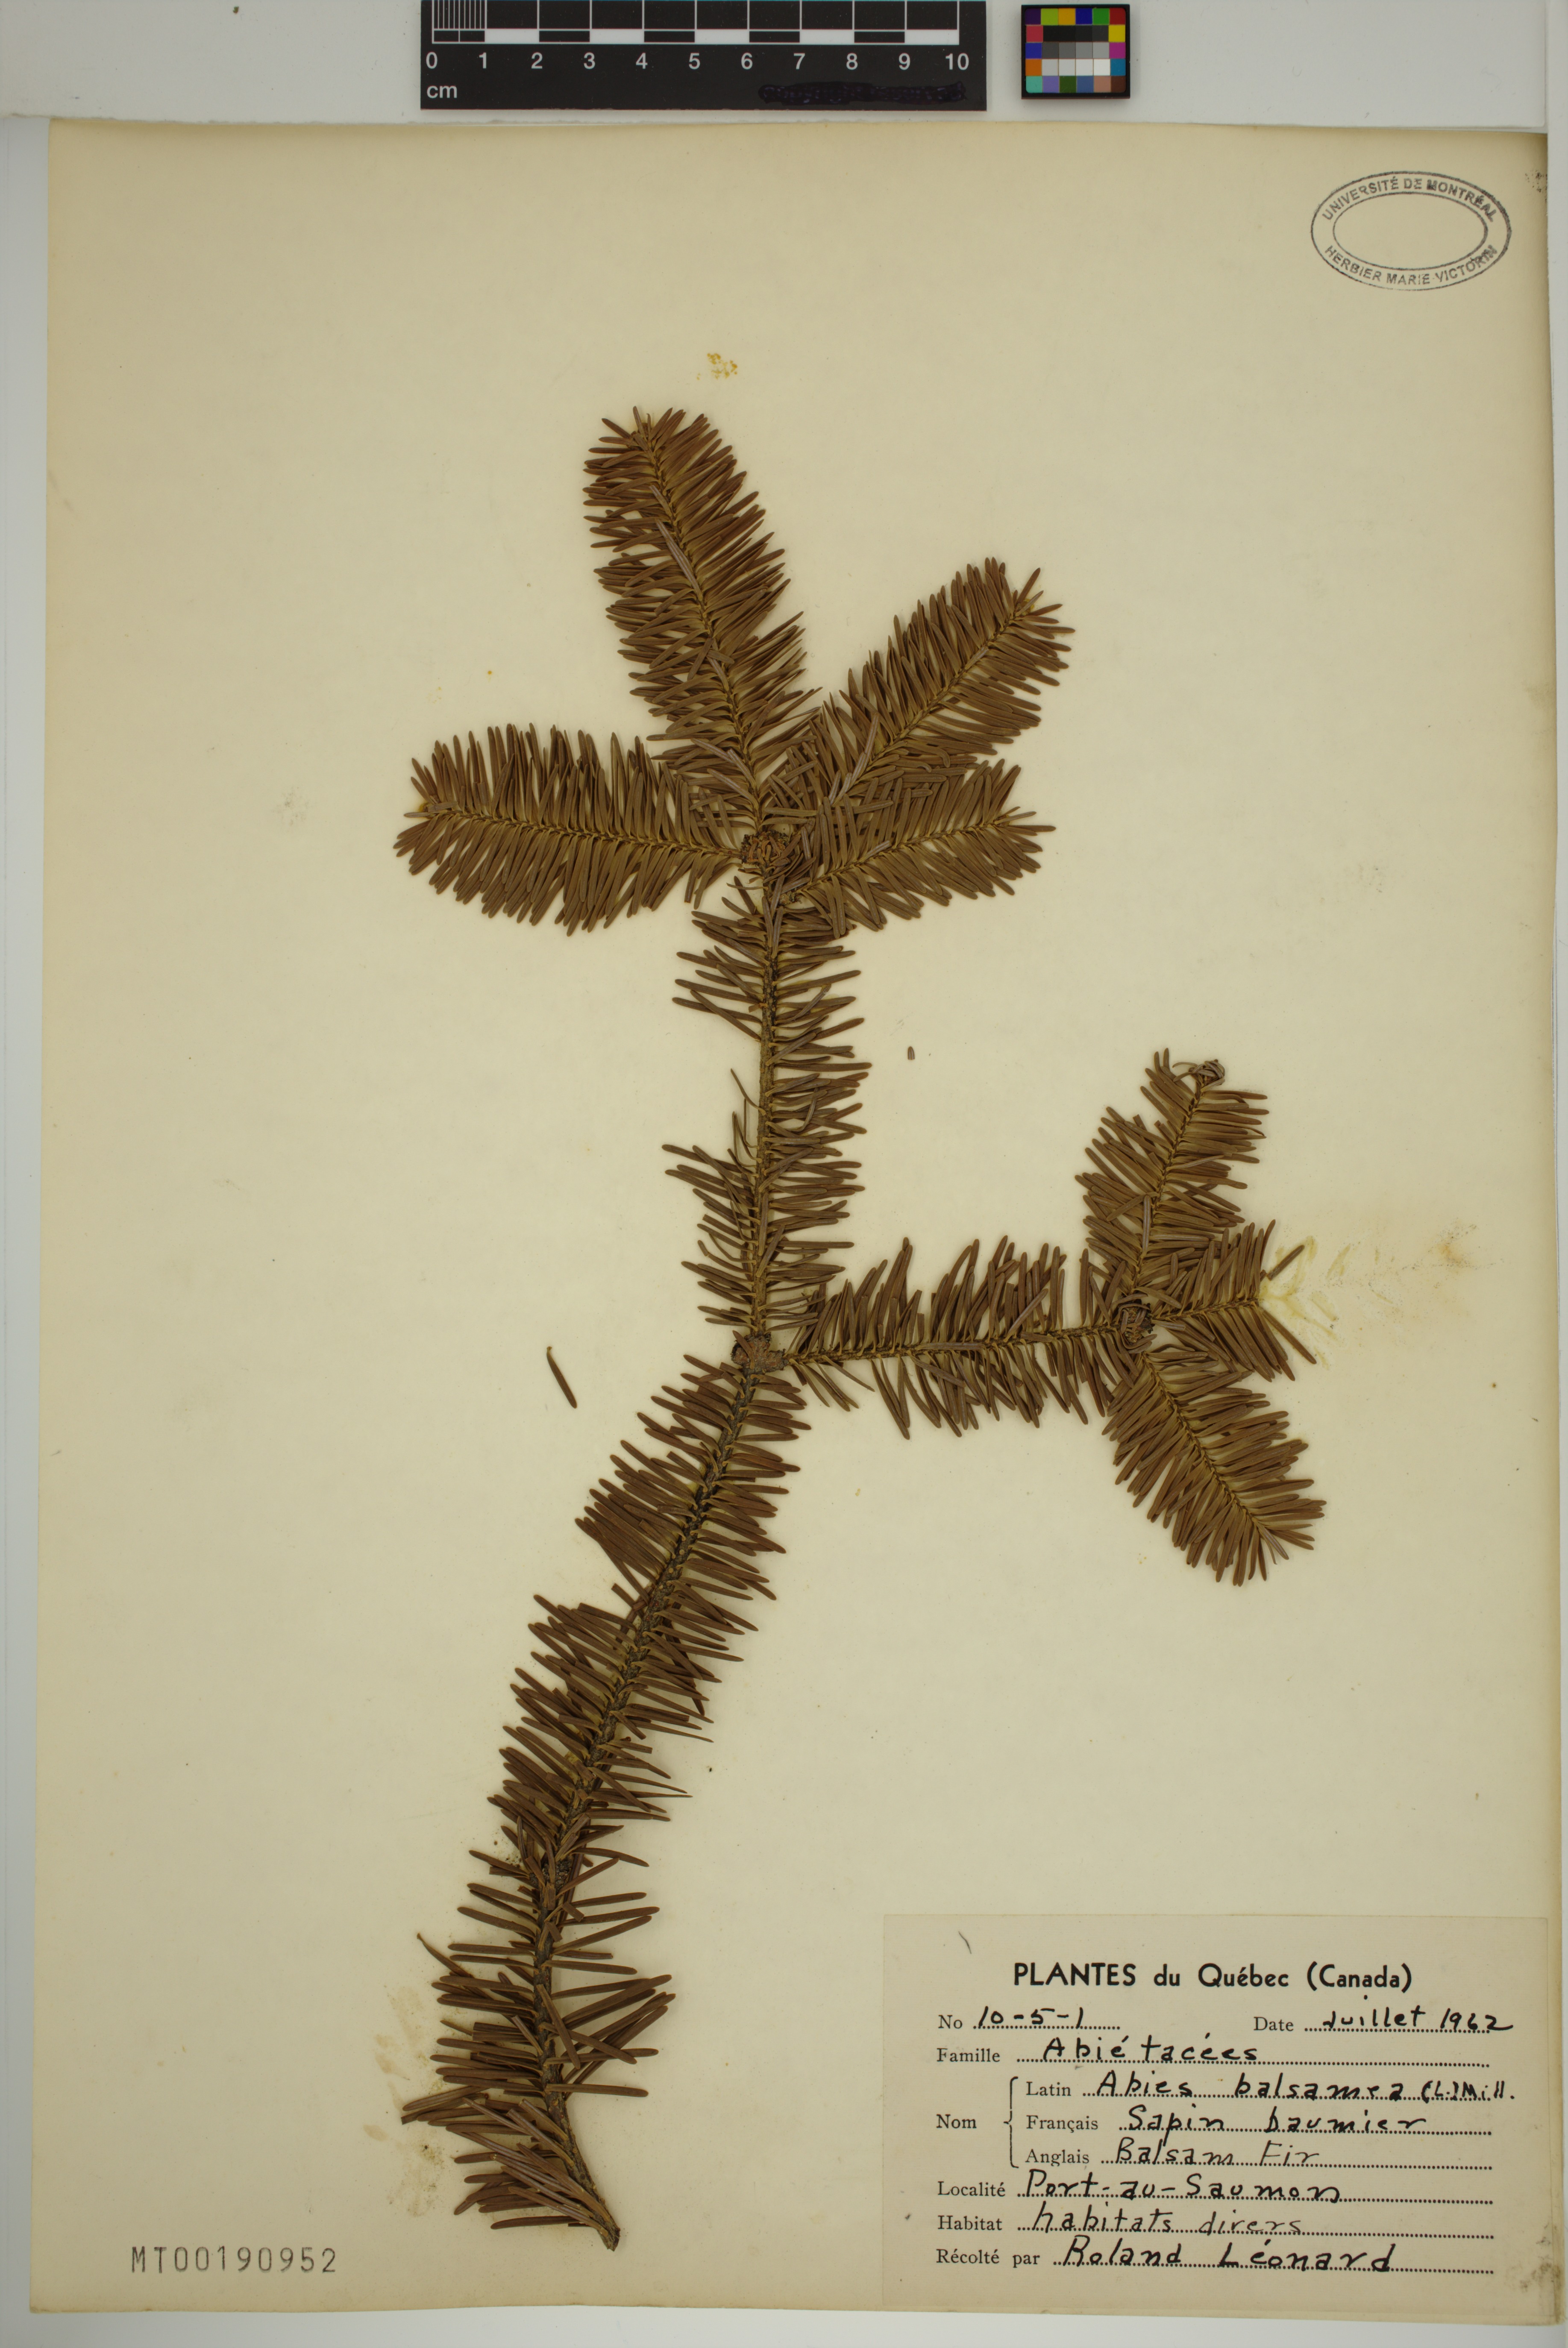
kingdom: Plantae
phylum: Tracheophyta
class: Pinopsida
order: Pinales
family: Pinaceae
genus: Abies
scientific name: Abies balsamea
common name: Balsam fir
